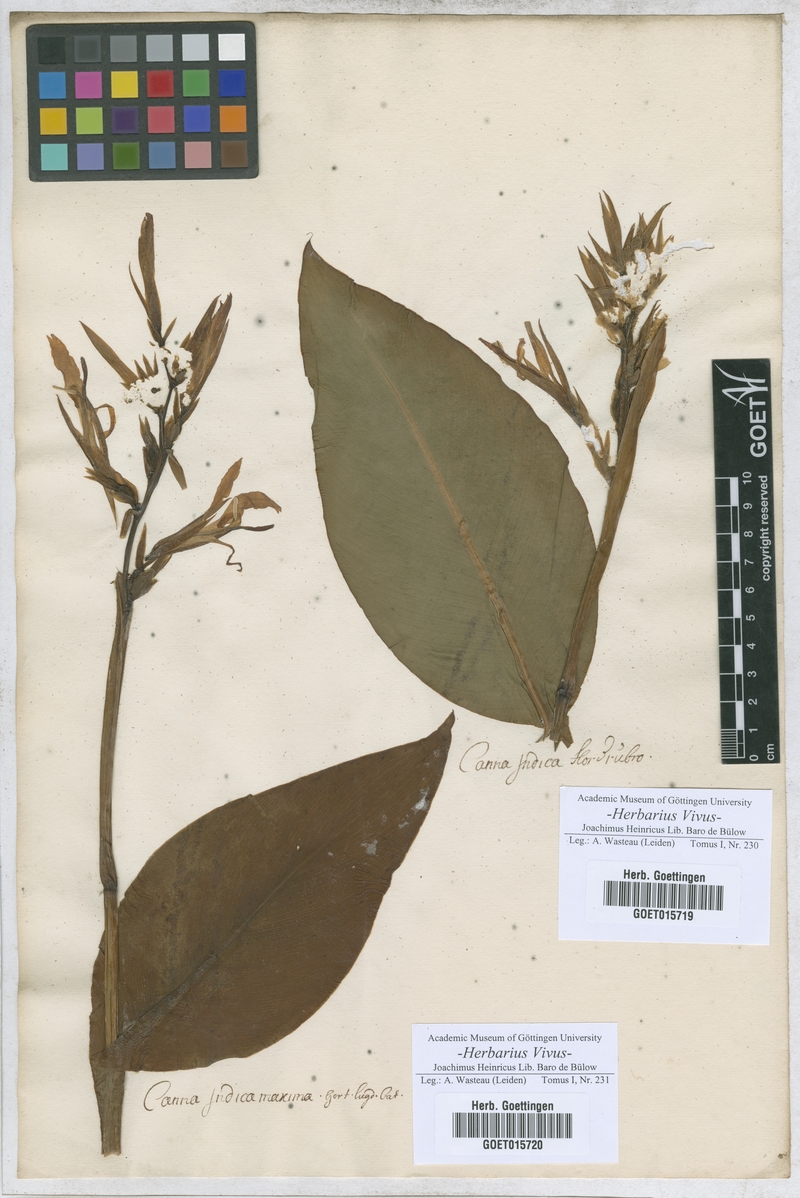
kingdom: Plantae
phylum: Tracheophyta
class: Liliopsida
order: Zingiberales
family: Cannaceae
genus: Canna
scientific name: Canna indica
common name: Indian shot
